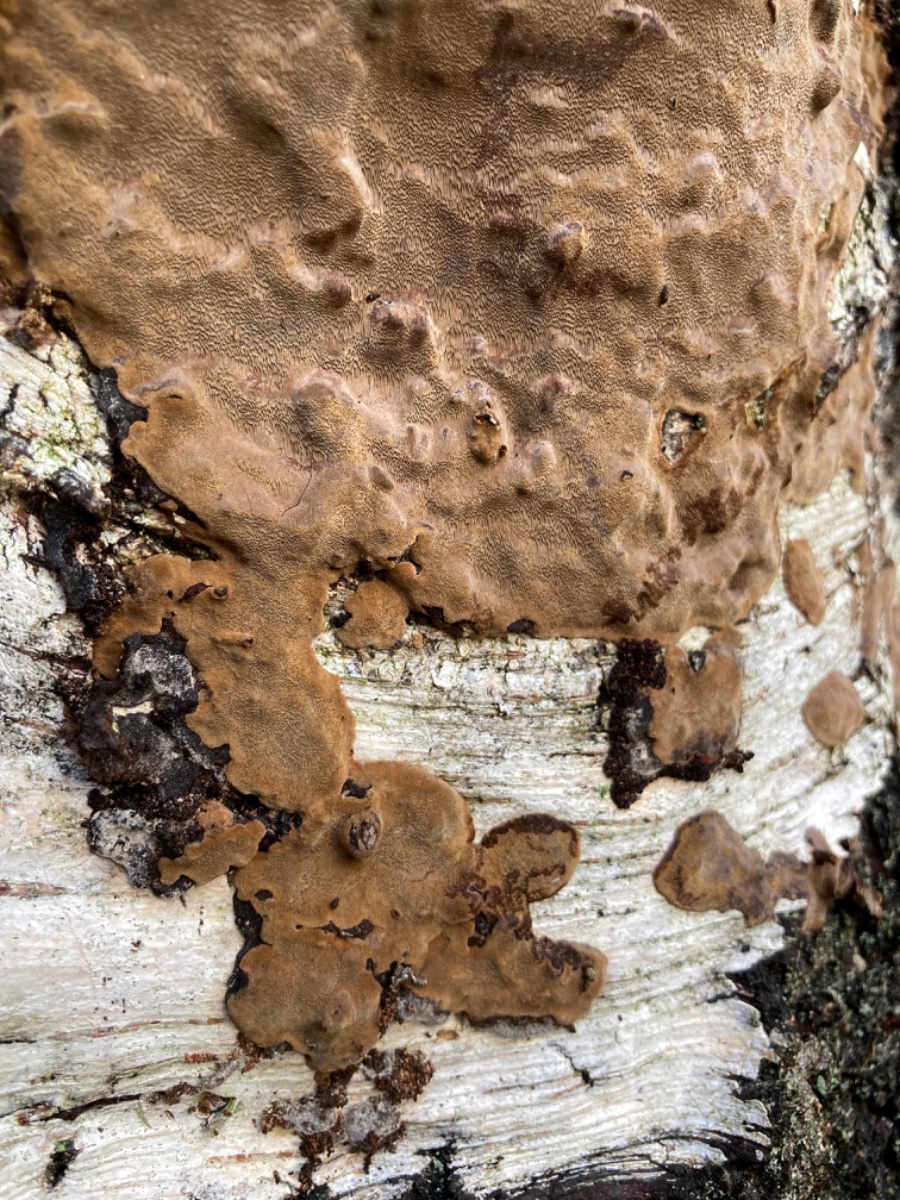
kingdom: Fungi
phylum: Basidiomycota
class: Agaricomycetes
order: Hymenochaetales
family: Hymenochaetaceae
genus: Fuscoporia
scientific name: Fuscoporia ferrea
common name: skorpe-ildporesvamp
